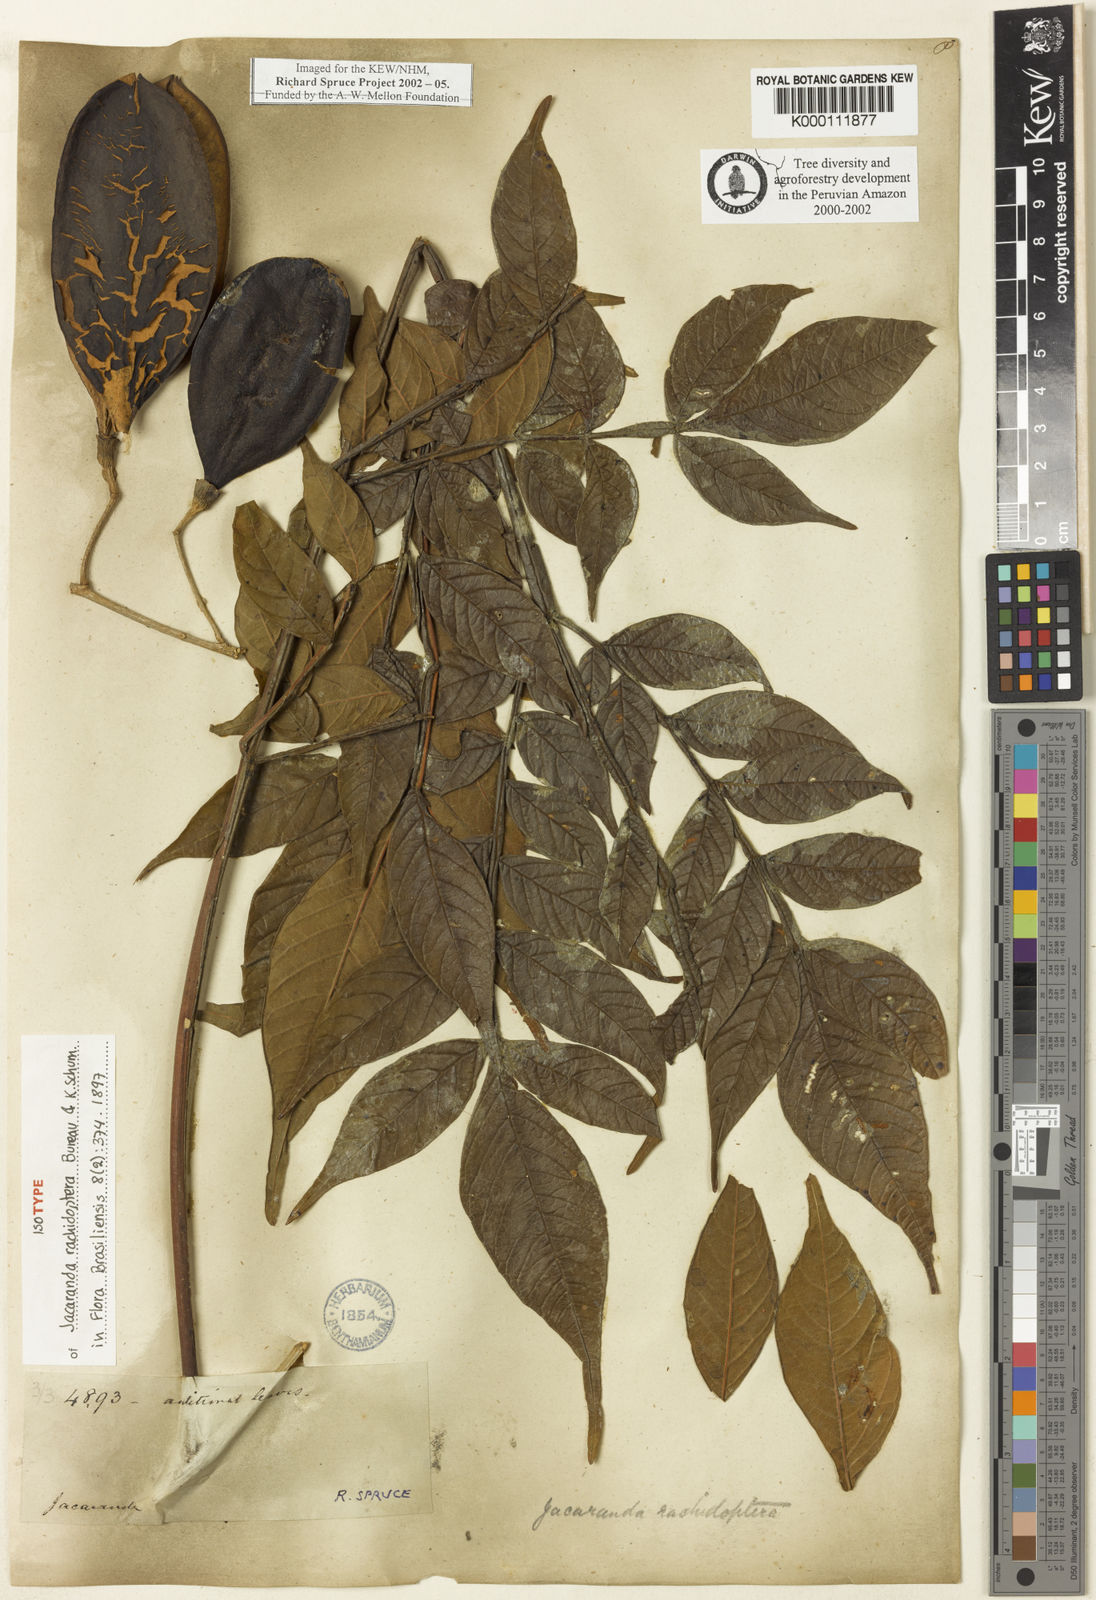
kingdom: Plantae
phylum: Tracheophyta
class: Magnoliopsida
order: Lamiales
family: Bignoniaceae
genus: Jacaranda
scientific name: Jacaranda glabra
